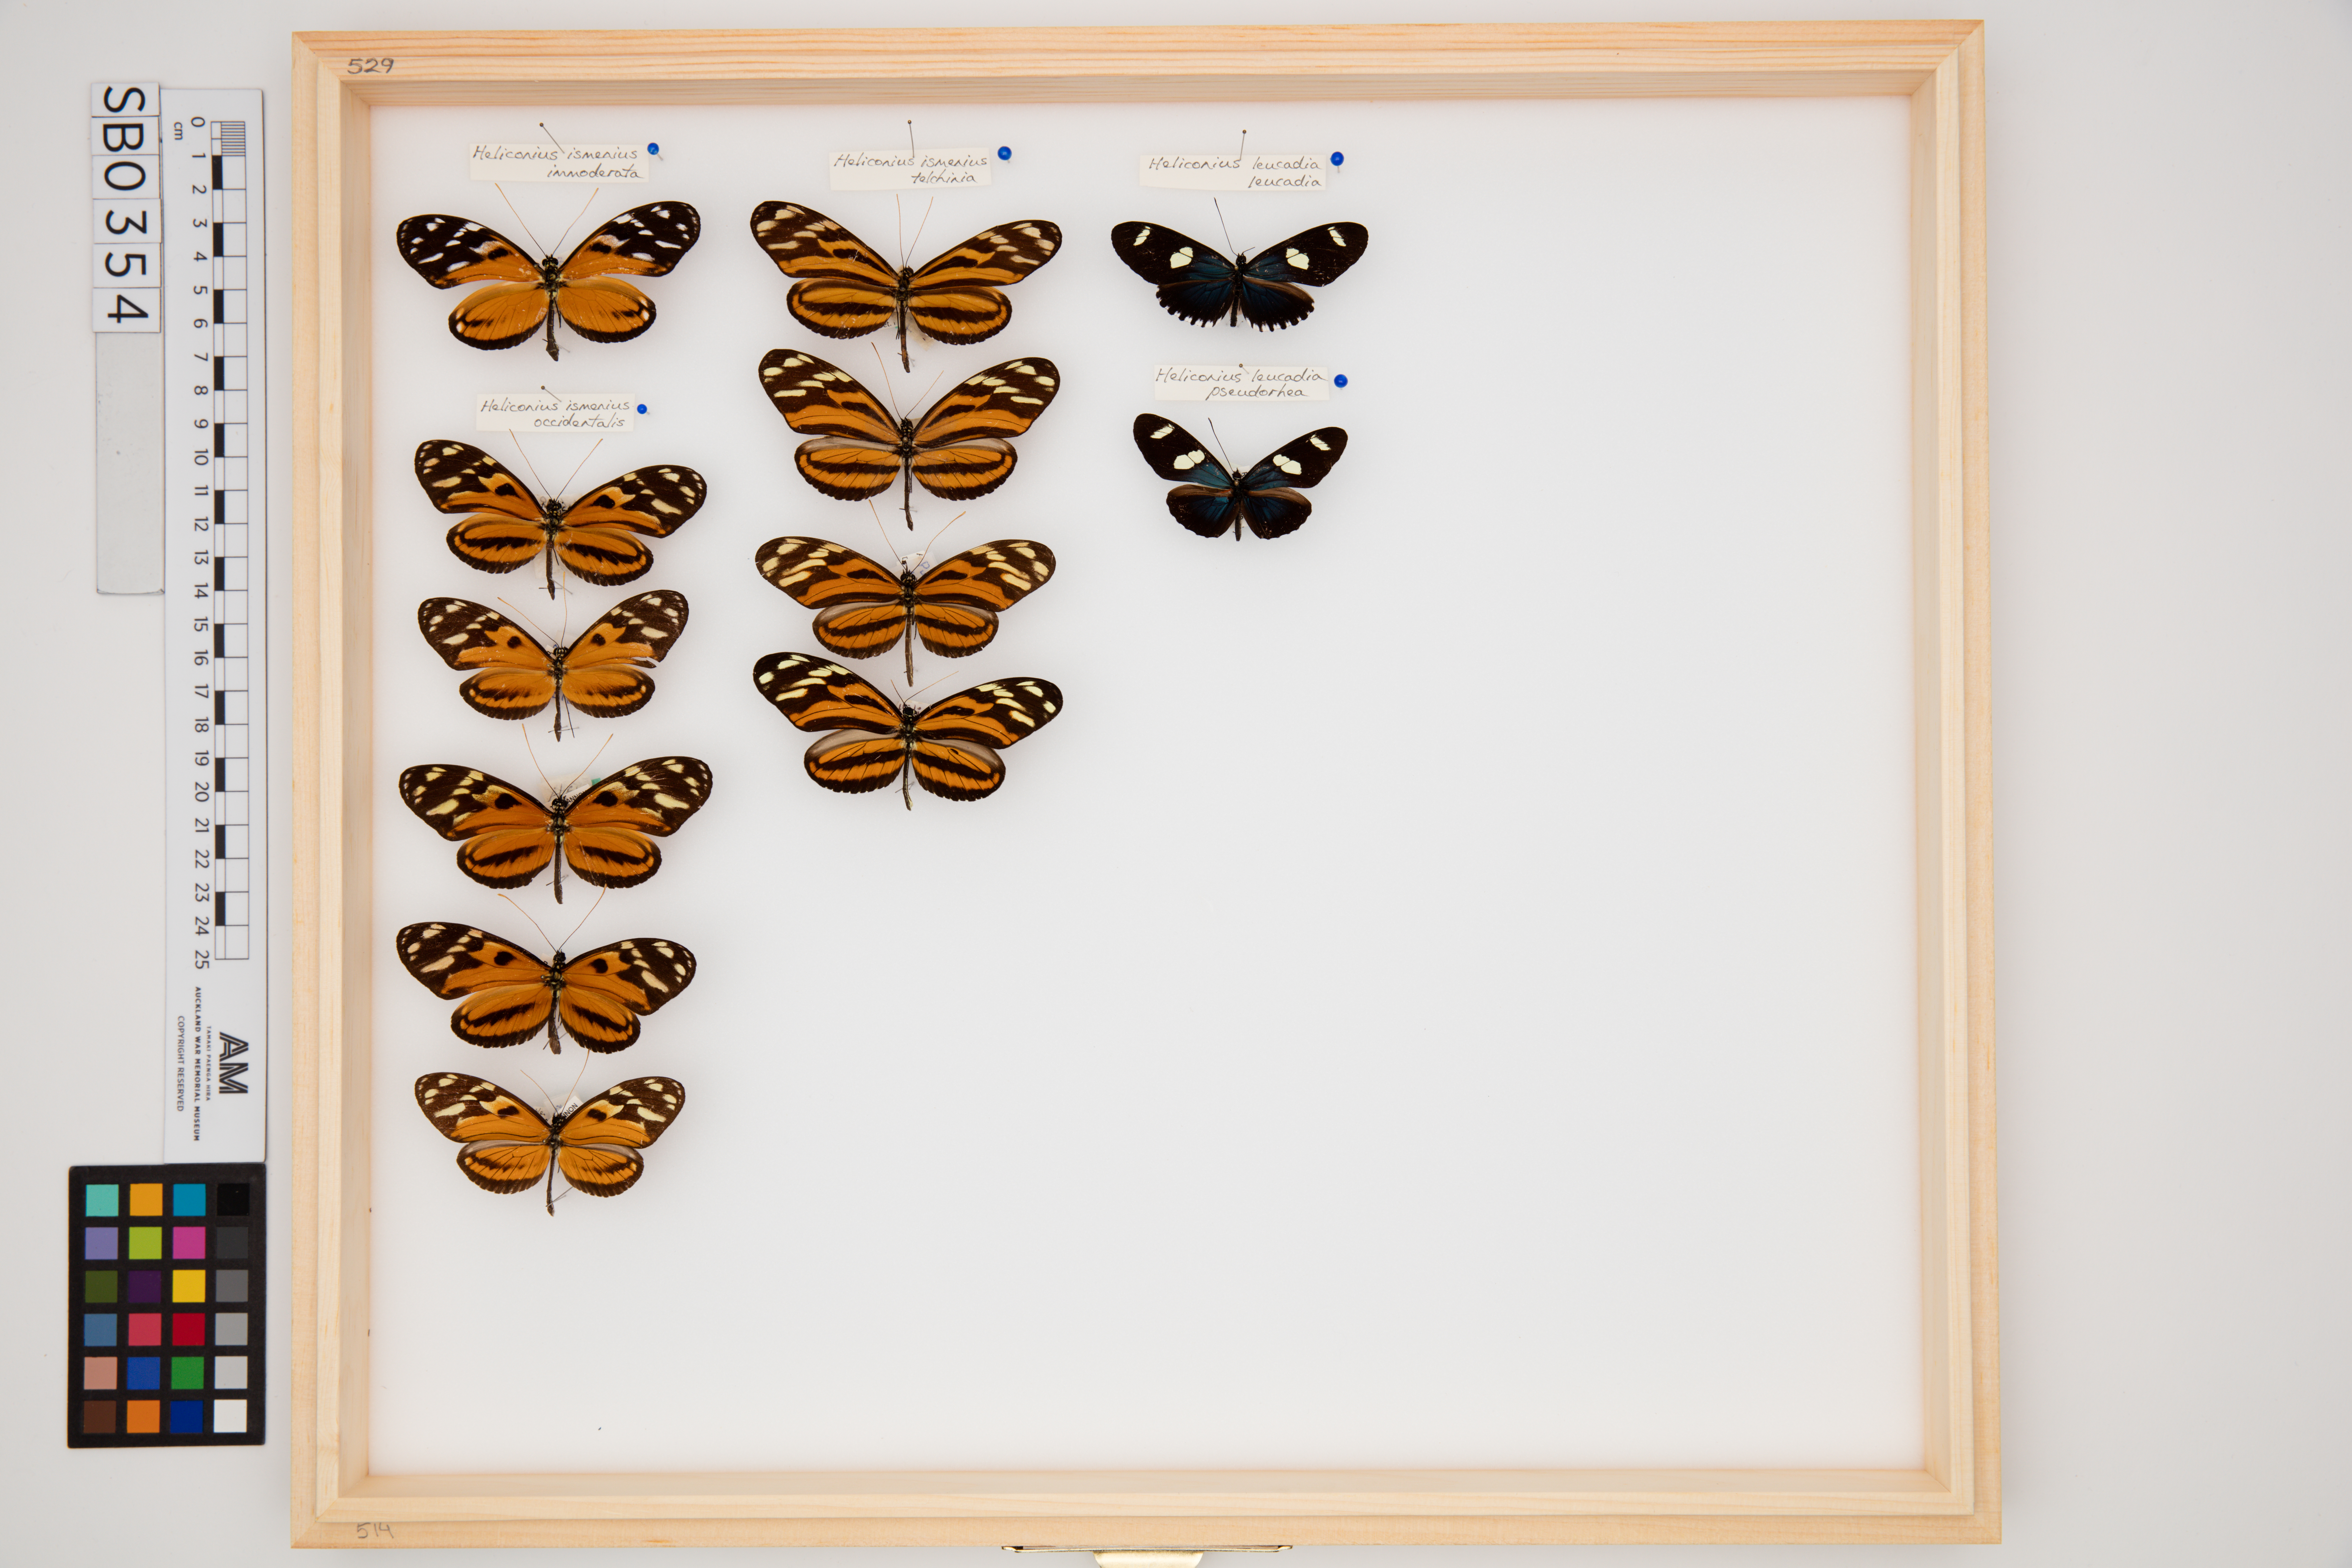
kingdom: Animalia
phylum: Arthropoda
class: Insecta
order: Lepidoptera
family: Nymphalidae
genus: Heliconius
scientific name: Heliconius leucadia
